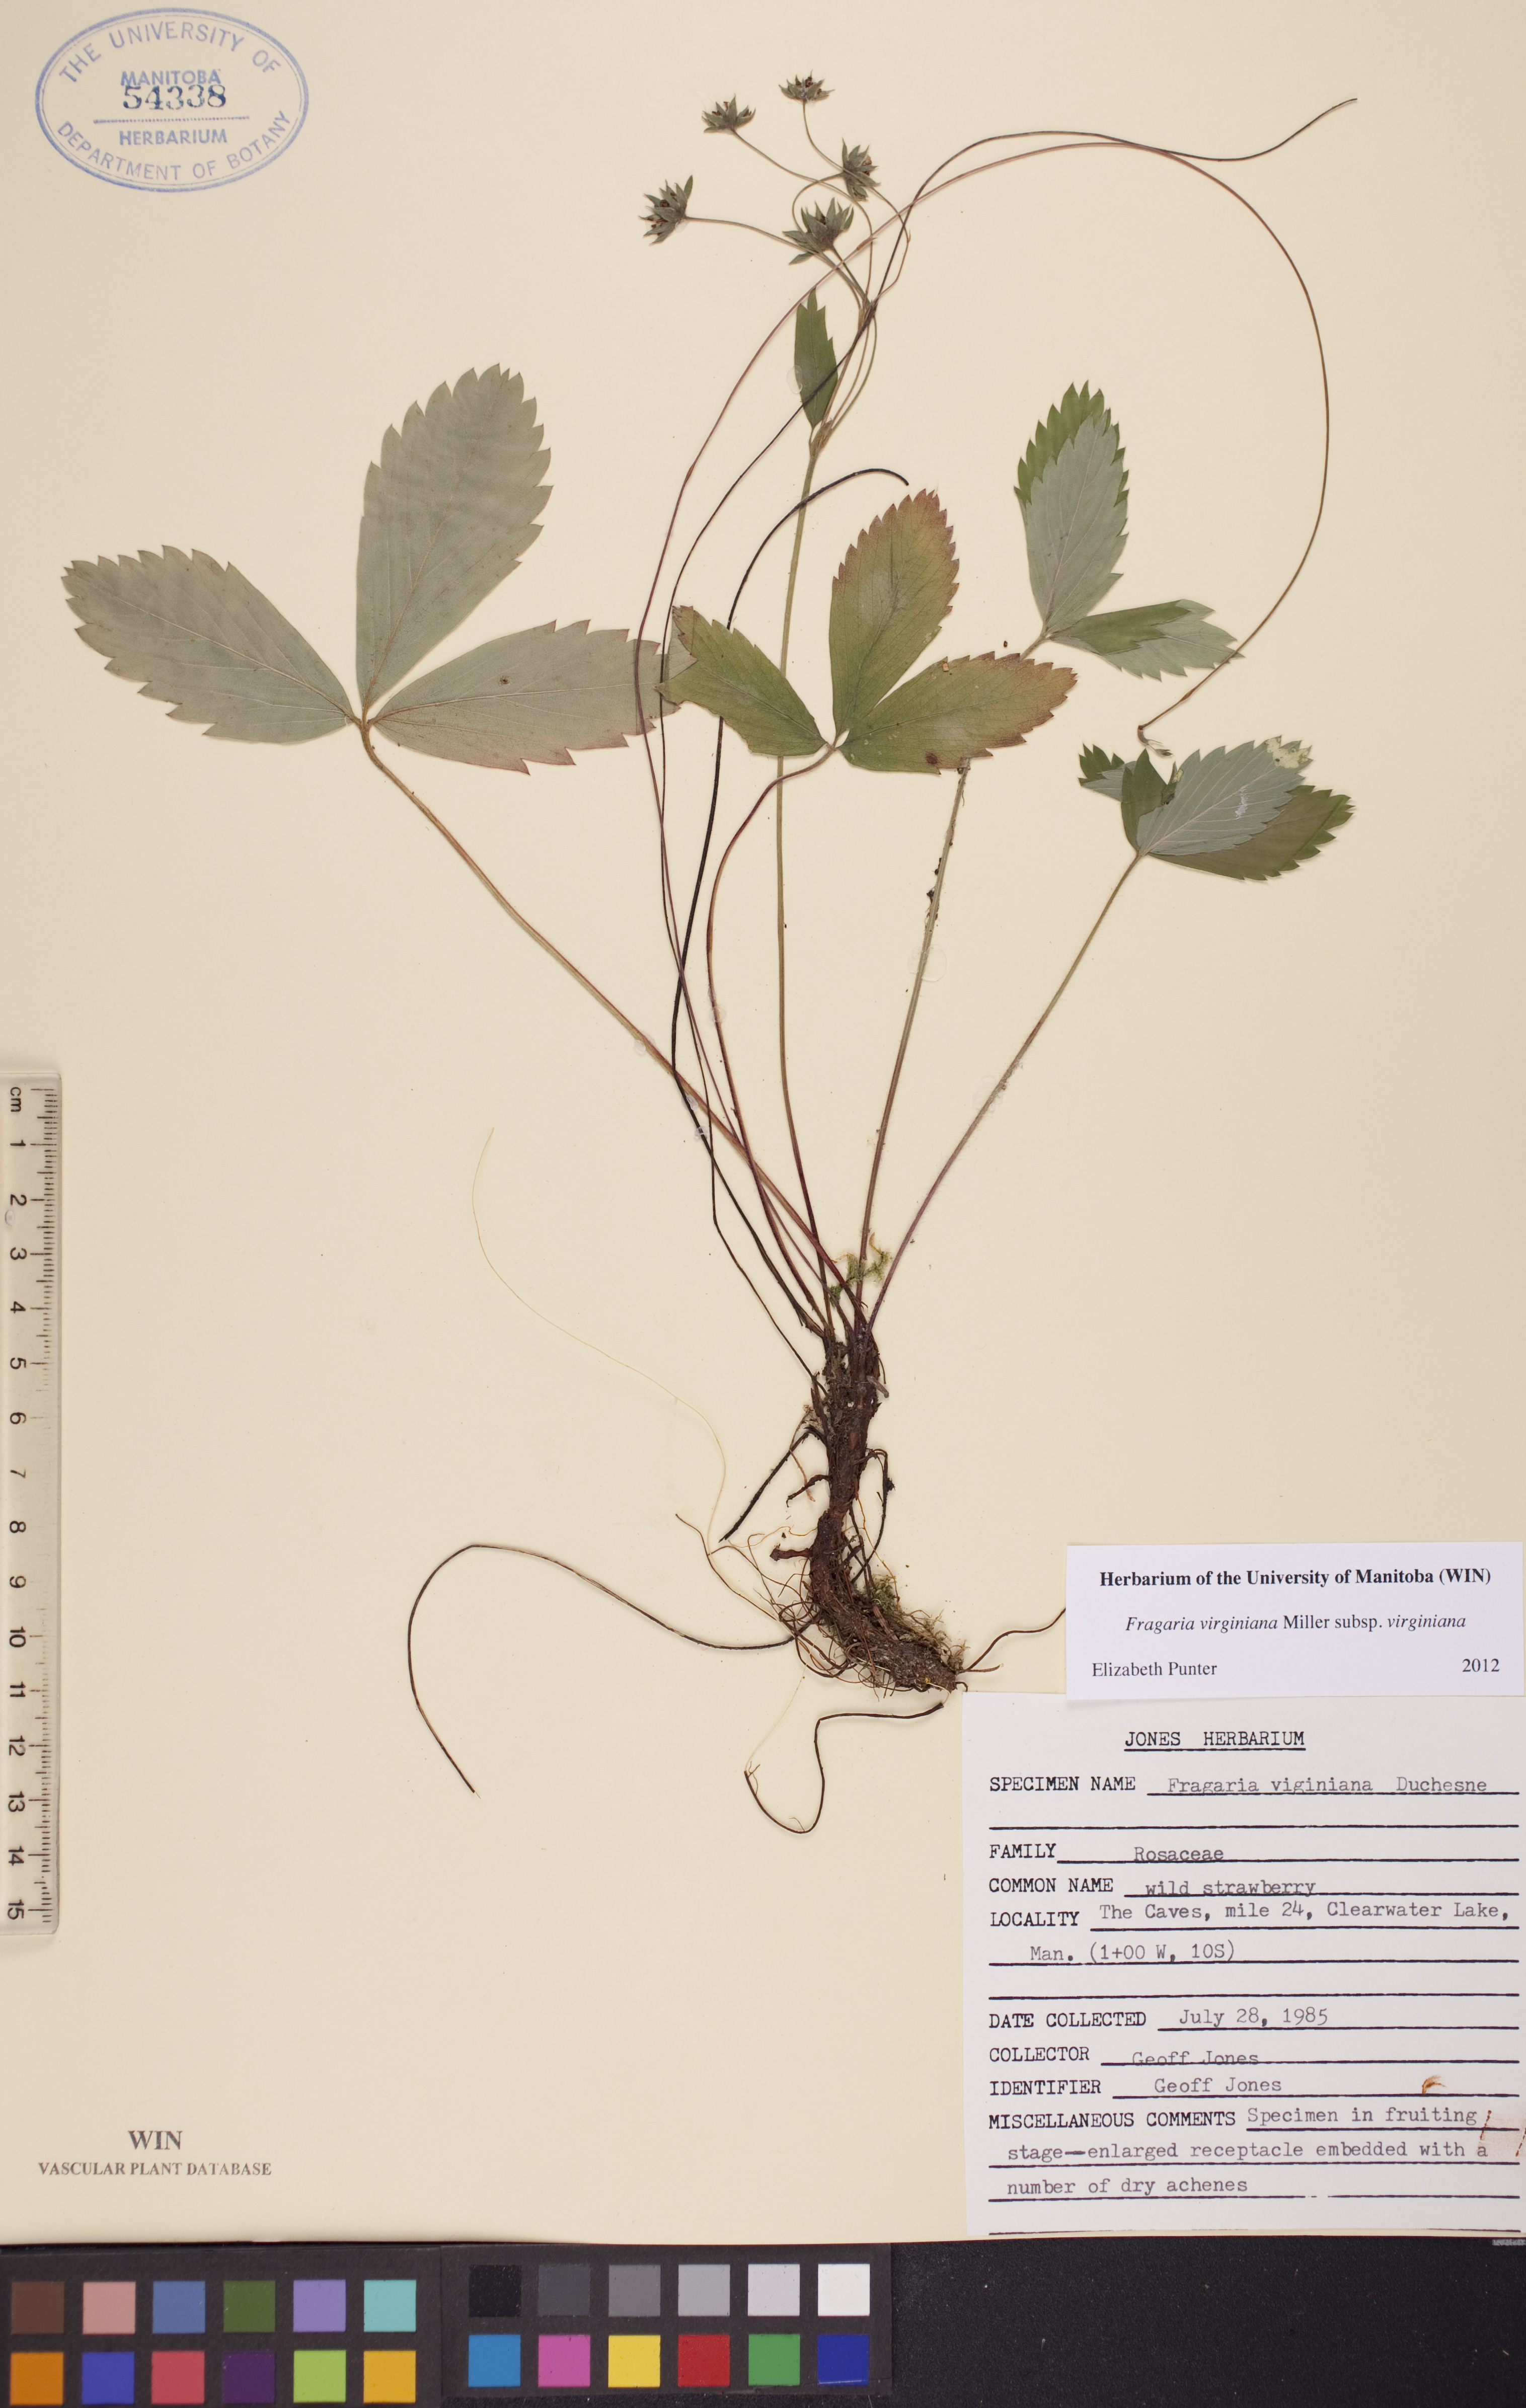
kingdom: Plantae
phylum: Tracheophyta
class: Magnoliopsida
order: Rosales
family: Rosaceae
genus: Fragaria
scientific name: Fragaria virginiana
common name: Thickleaved wild strawberry
